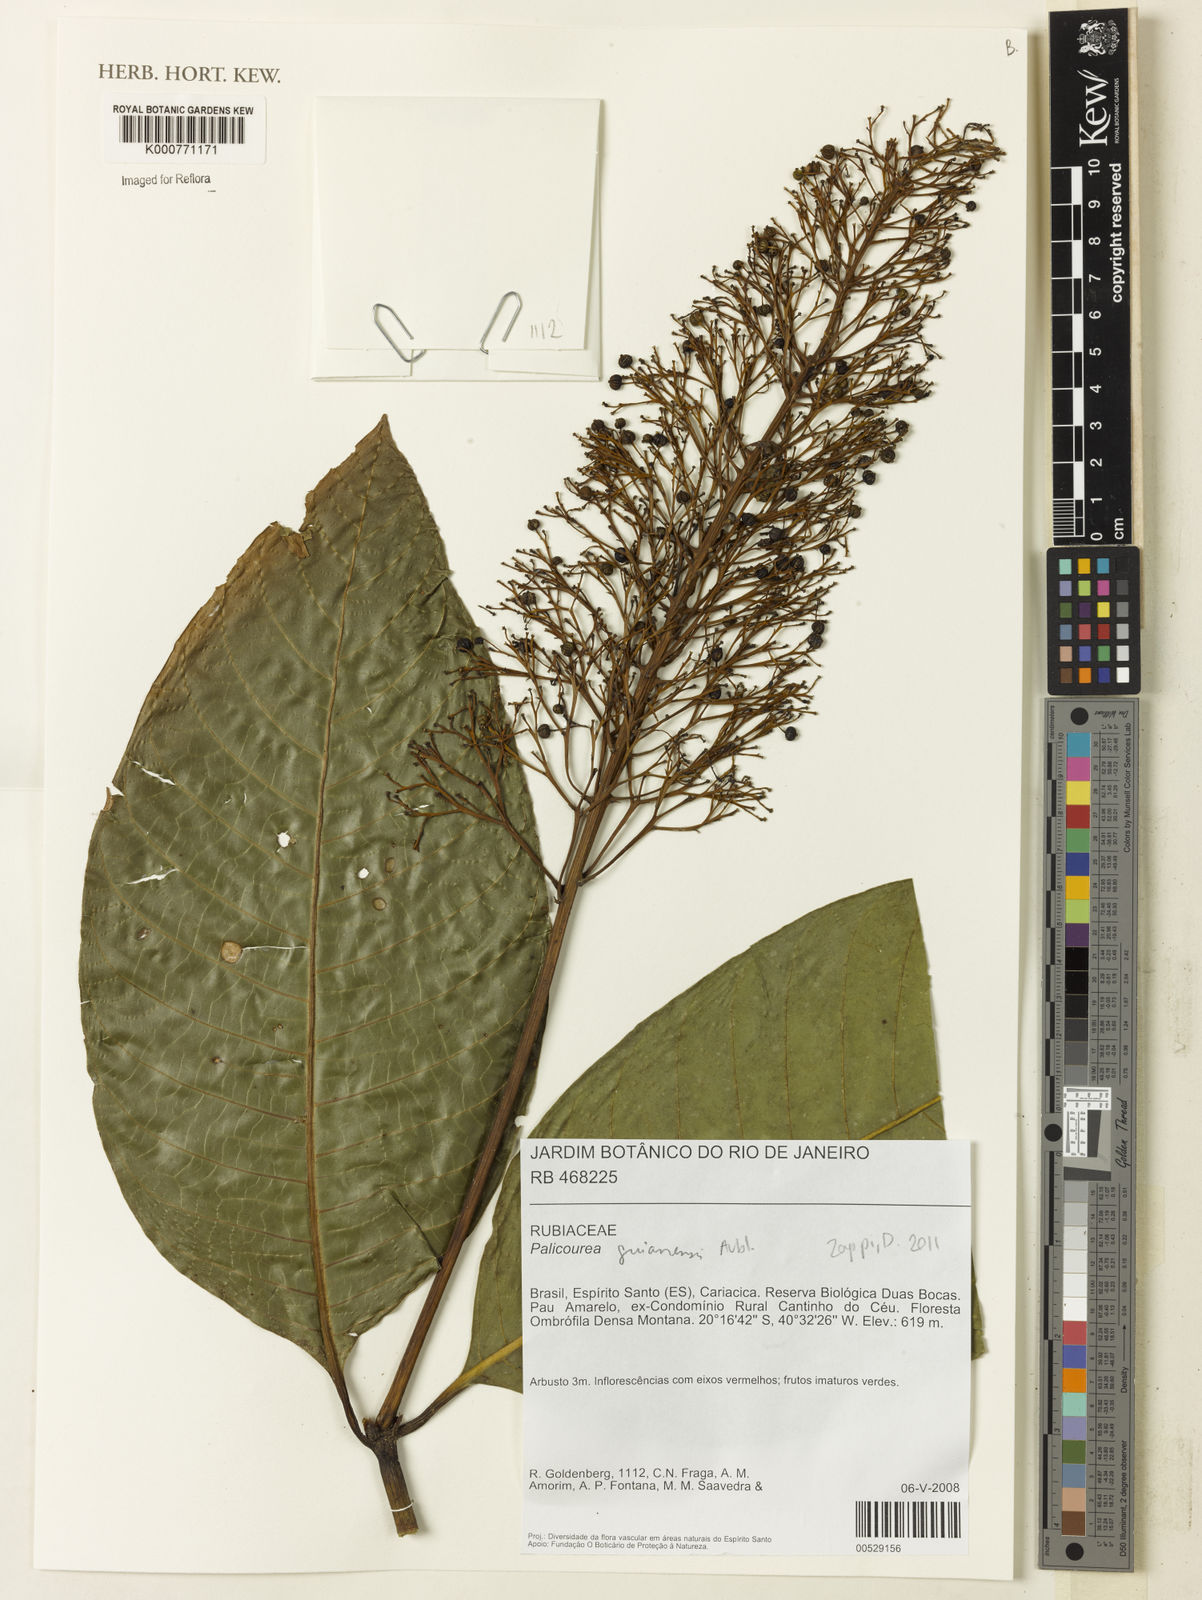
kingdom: Plantae
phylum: Tracheophyta
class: Magnoliopsida
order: Gentianales
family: Rubiaceae
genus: Palicourea
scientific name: Palicourea guianensis
